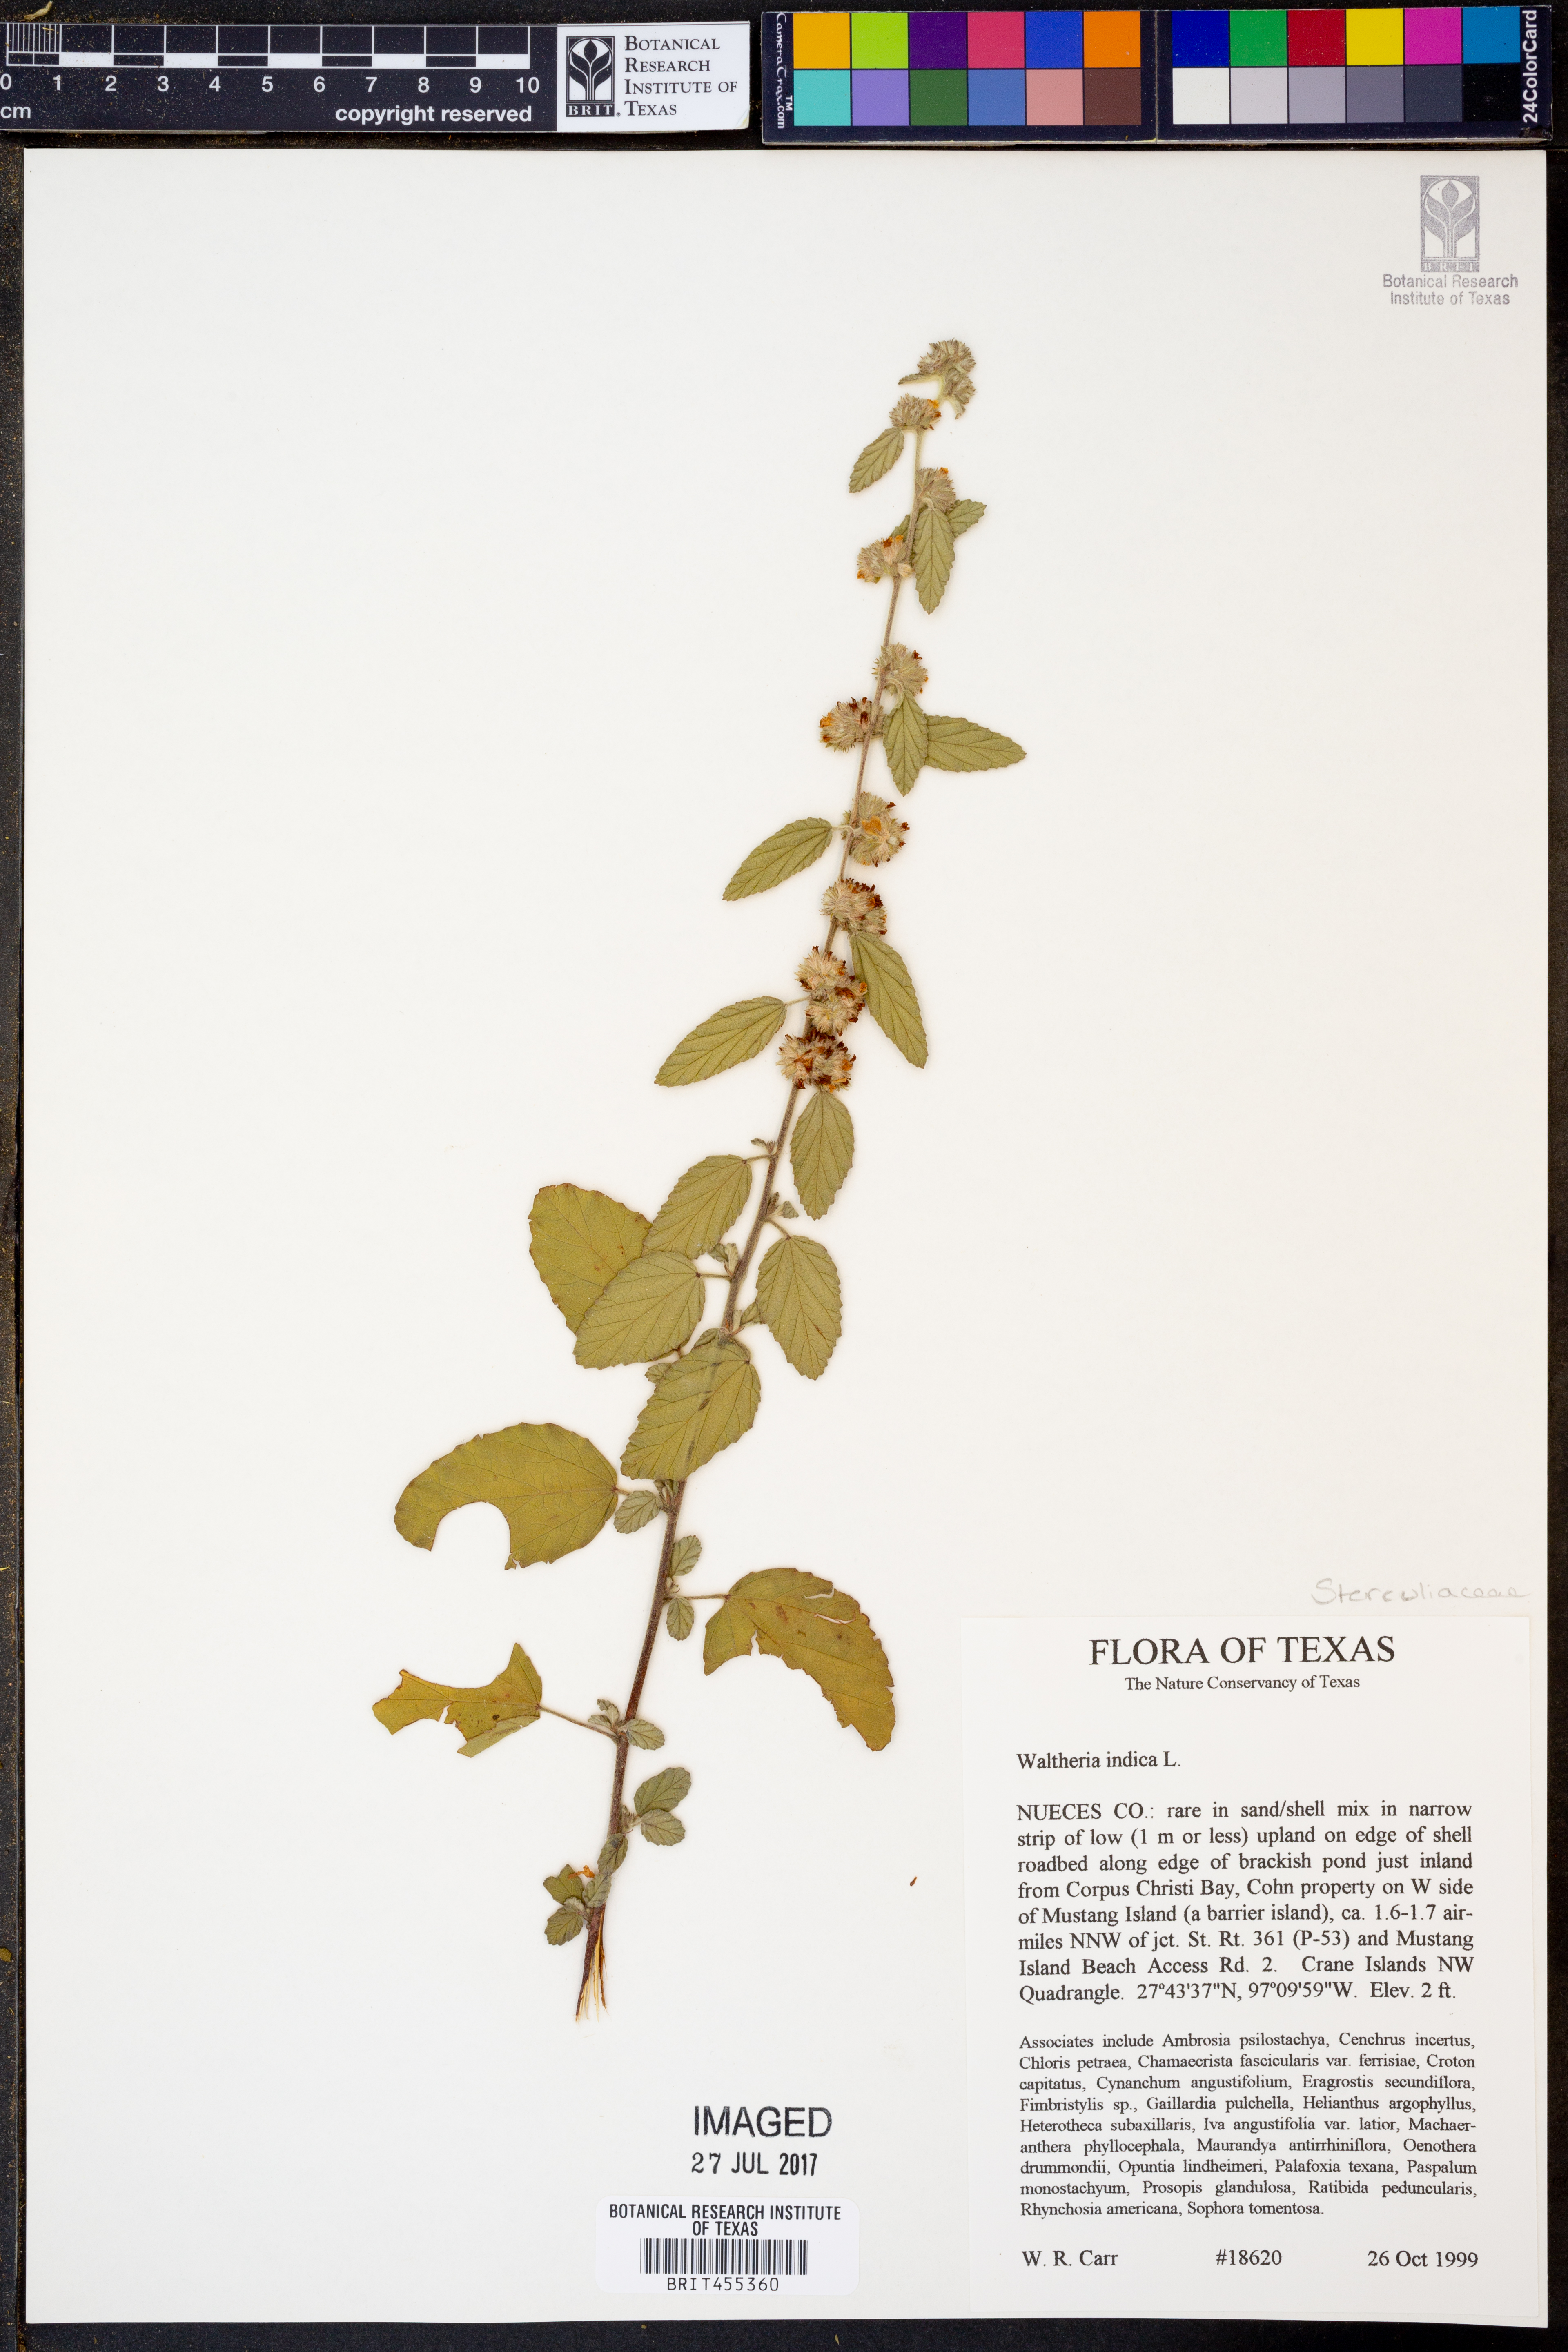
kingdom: Plantae
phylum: Tracheophyta
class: Magnoliopsida
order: Malvales
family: Malvaceae
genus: Waltheria
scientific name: Waltheria indica
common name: Leather-coat
